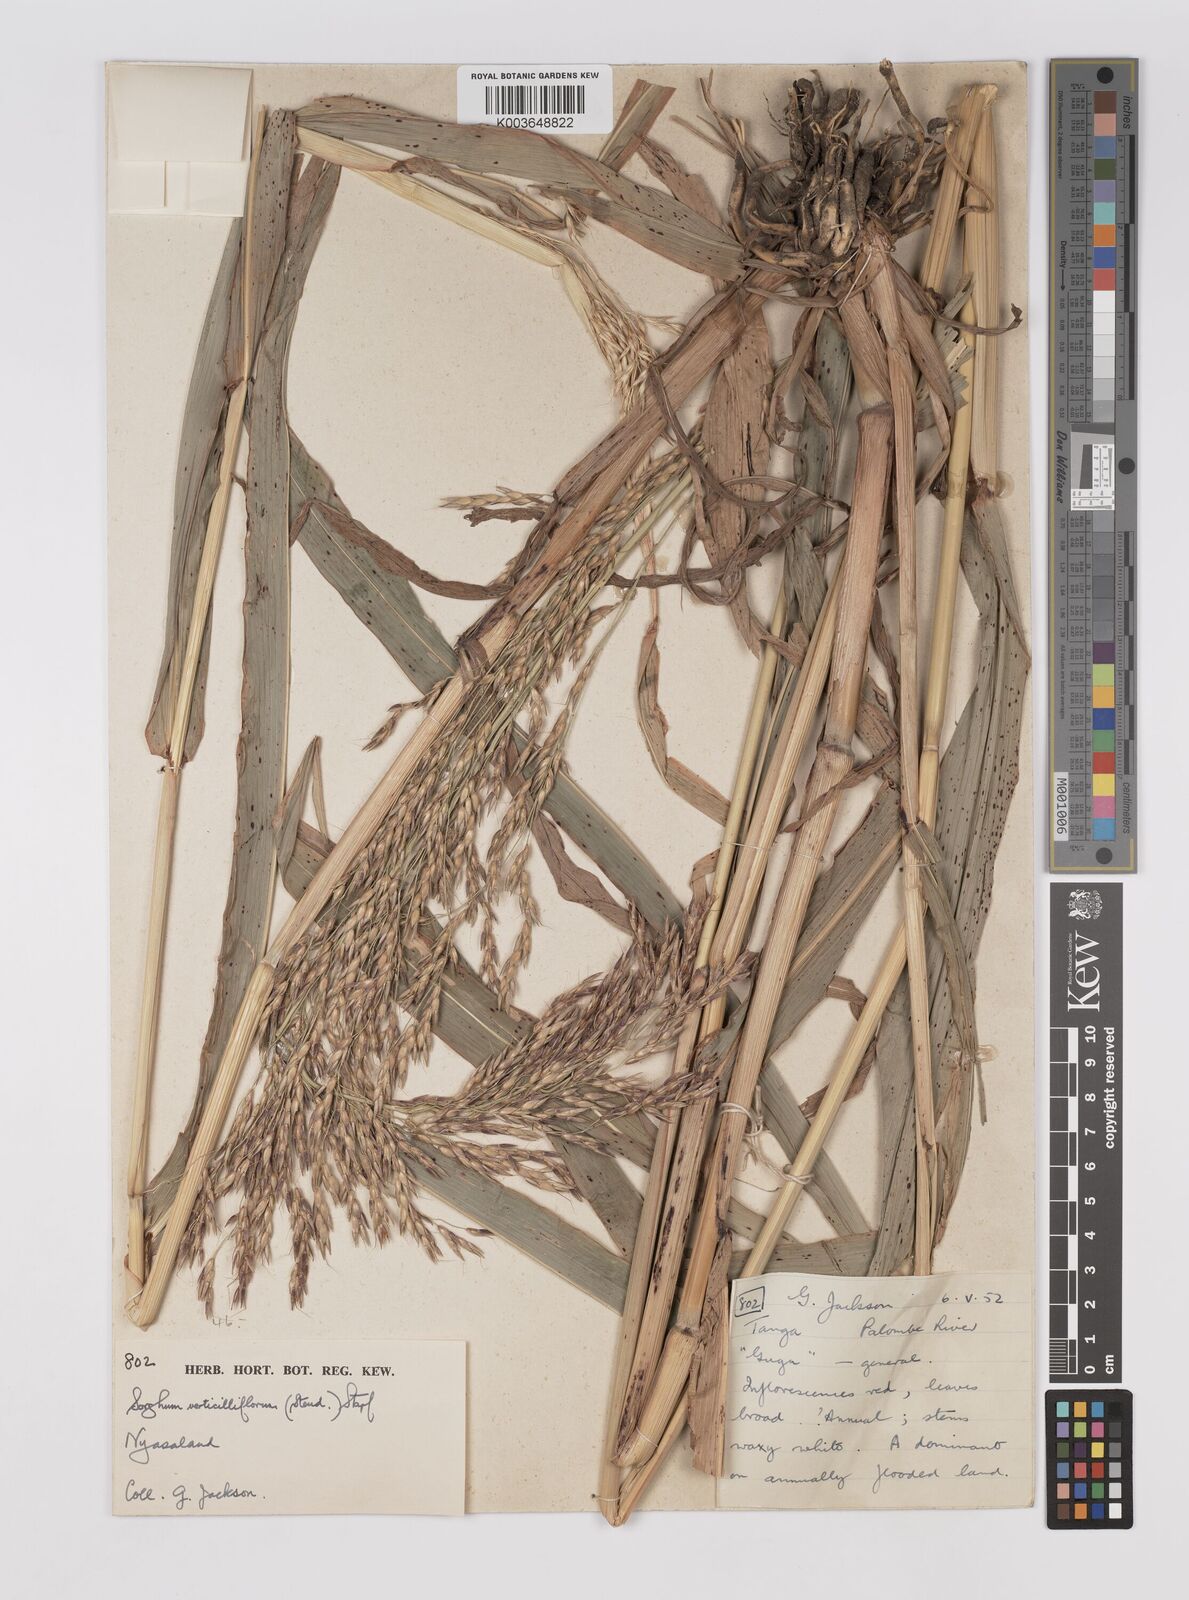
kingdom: Plantae
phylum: Tracheophyta
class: Liliopsida
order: Poales
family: Poaceae
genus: Sorghum
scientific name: Sorghum arundinaceum
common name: Sorghum
